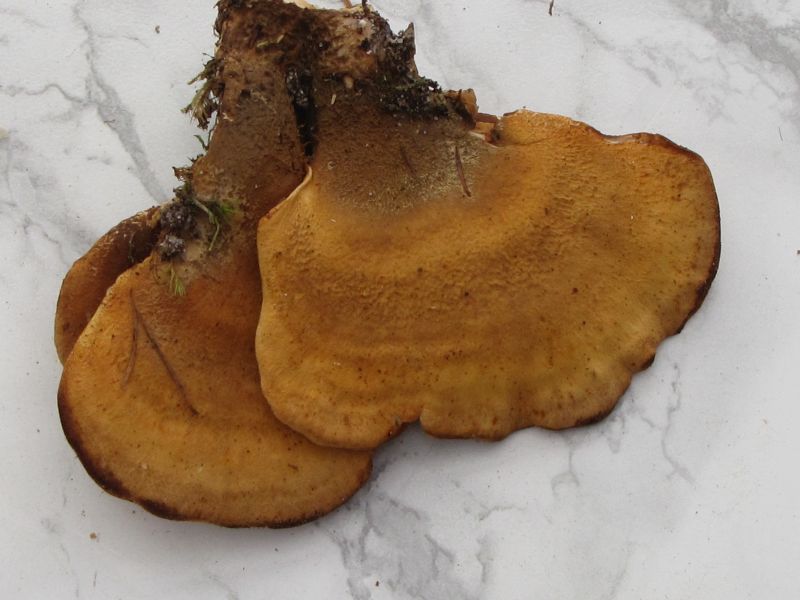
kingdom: Fungi
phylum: Basidiomycota
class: Agaricomycetes
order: Boletales
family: Tapinellaceae
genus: Tapinella
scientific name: Tapinella panuoides
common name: tømmer-viftesvamp
